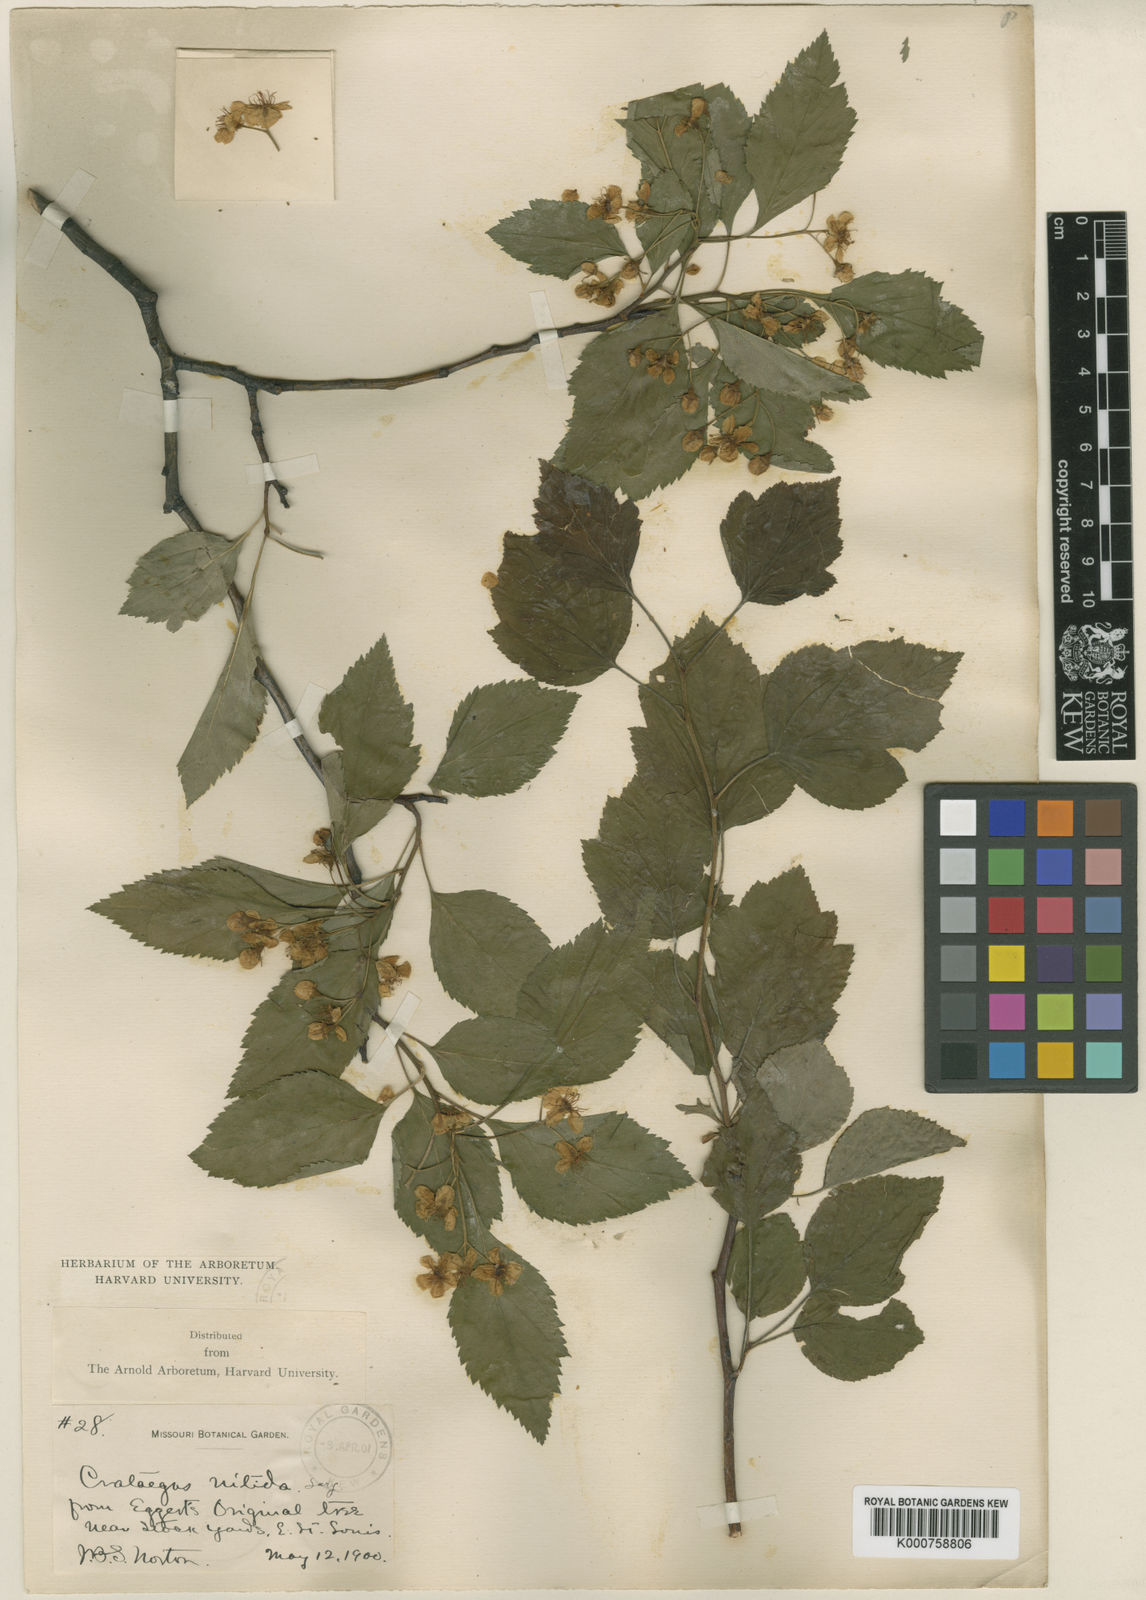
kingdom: Plantae
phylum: Tracheophyta
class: Magnoliopsida
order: Rosales
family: Rosaceae
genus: Crataegus
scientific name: Crataegus nitida
